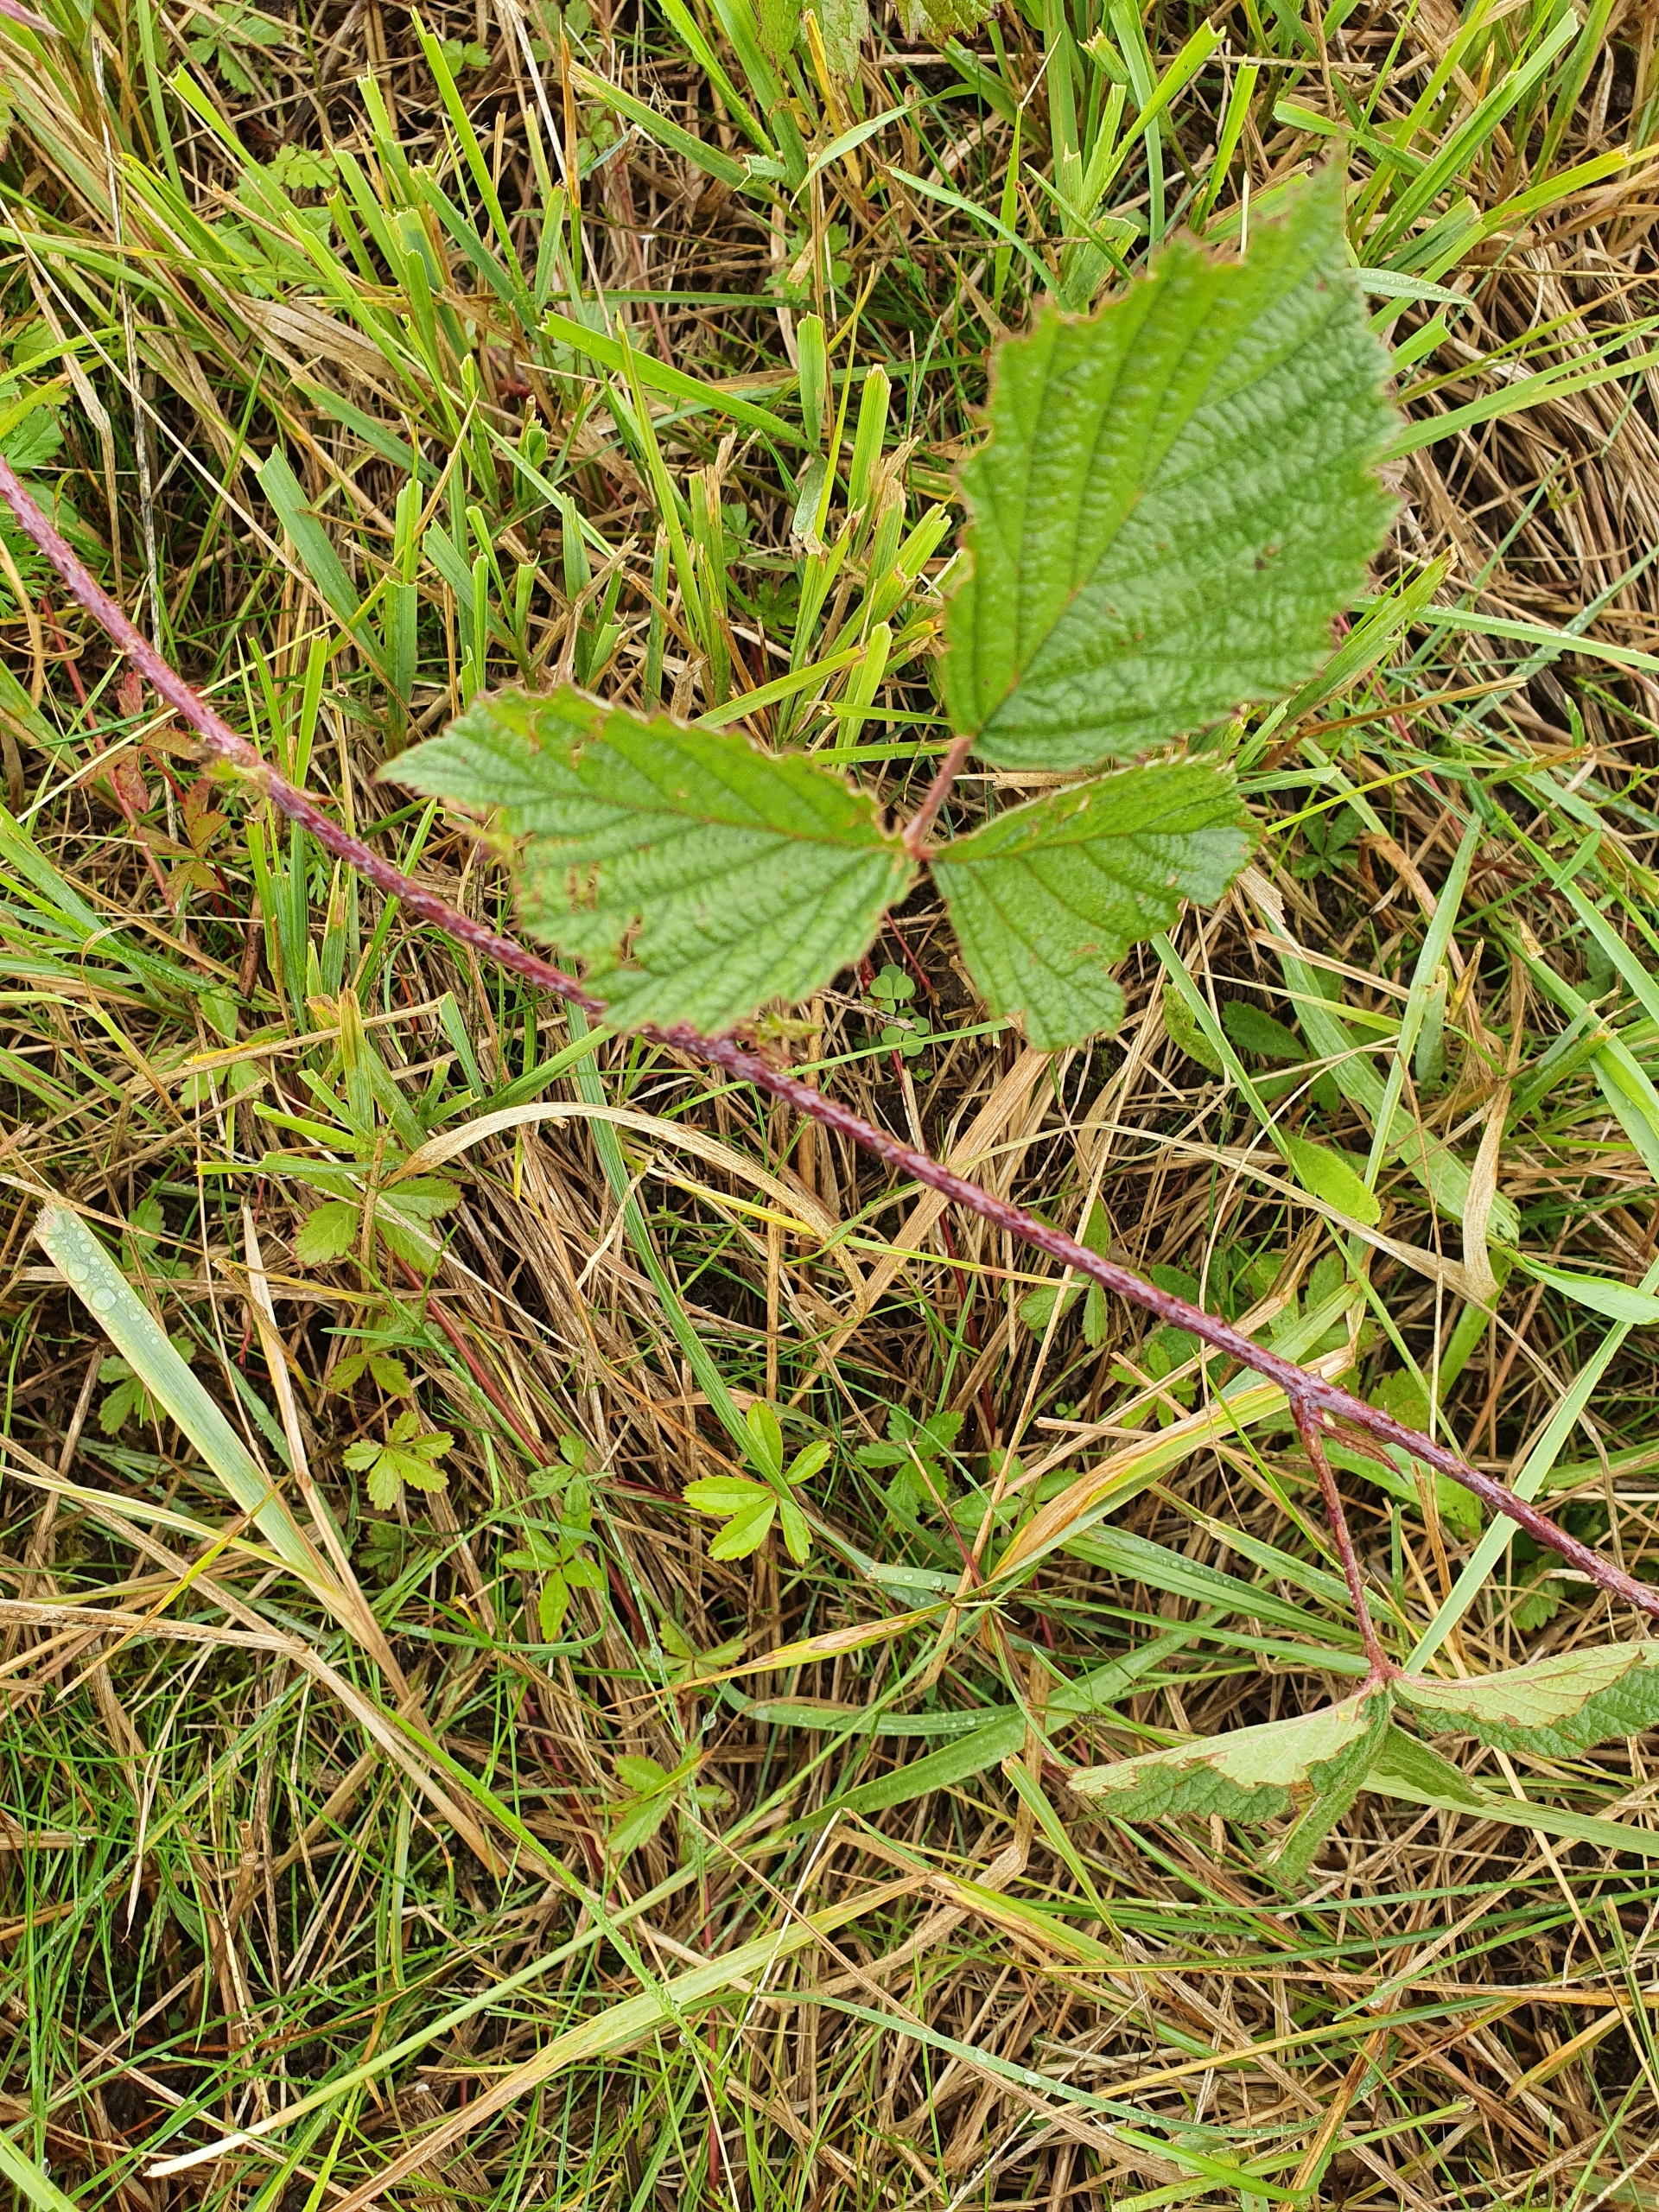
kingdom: Plantae
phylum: Tracheophyta
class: Magnoliopsida
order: Rosales
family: Rosaceae
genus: Rubus
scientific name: Rubus caesius
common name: Korbær
